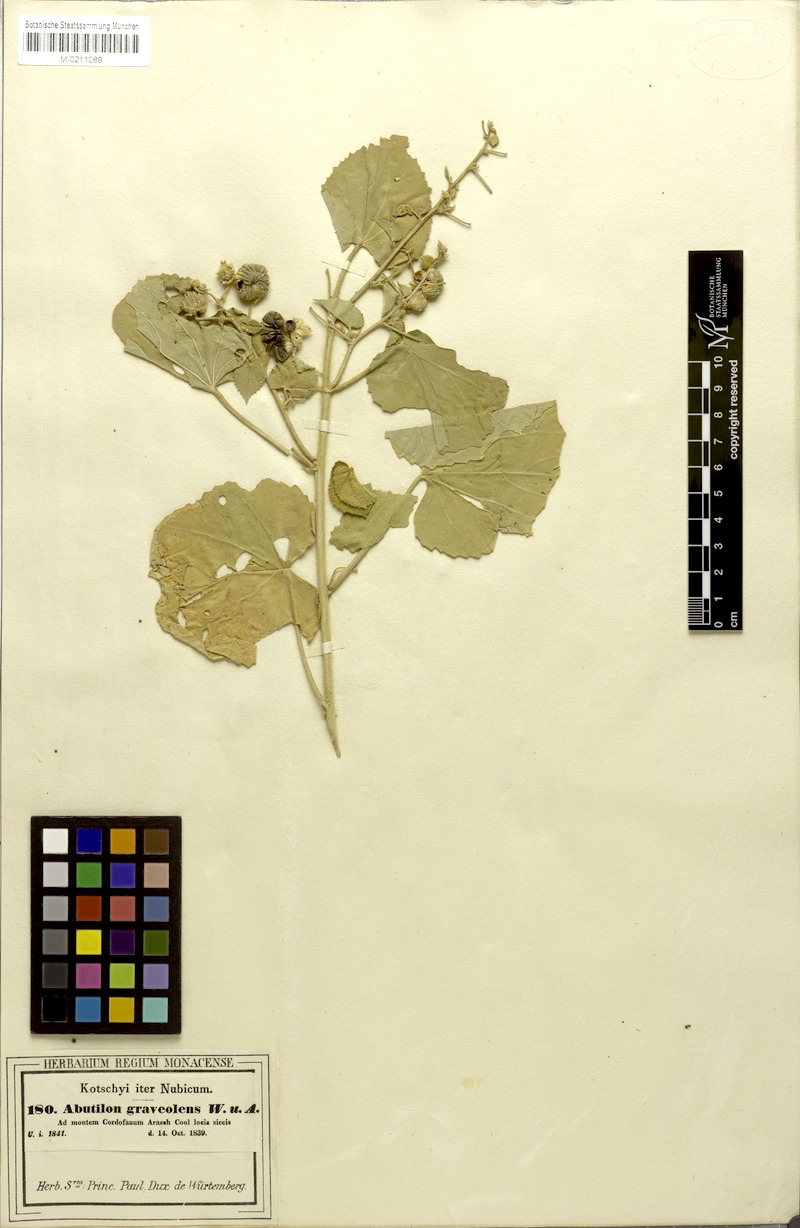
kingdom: Plantae
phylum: Tracheophyta
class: Magnoliopsida
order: Malvales
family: Malvaceae
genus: Abutilon
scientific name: Abutilon hirtum
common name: Florida keys indian mallow
